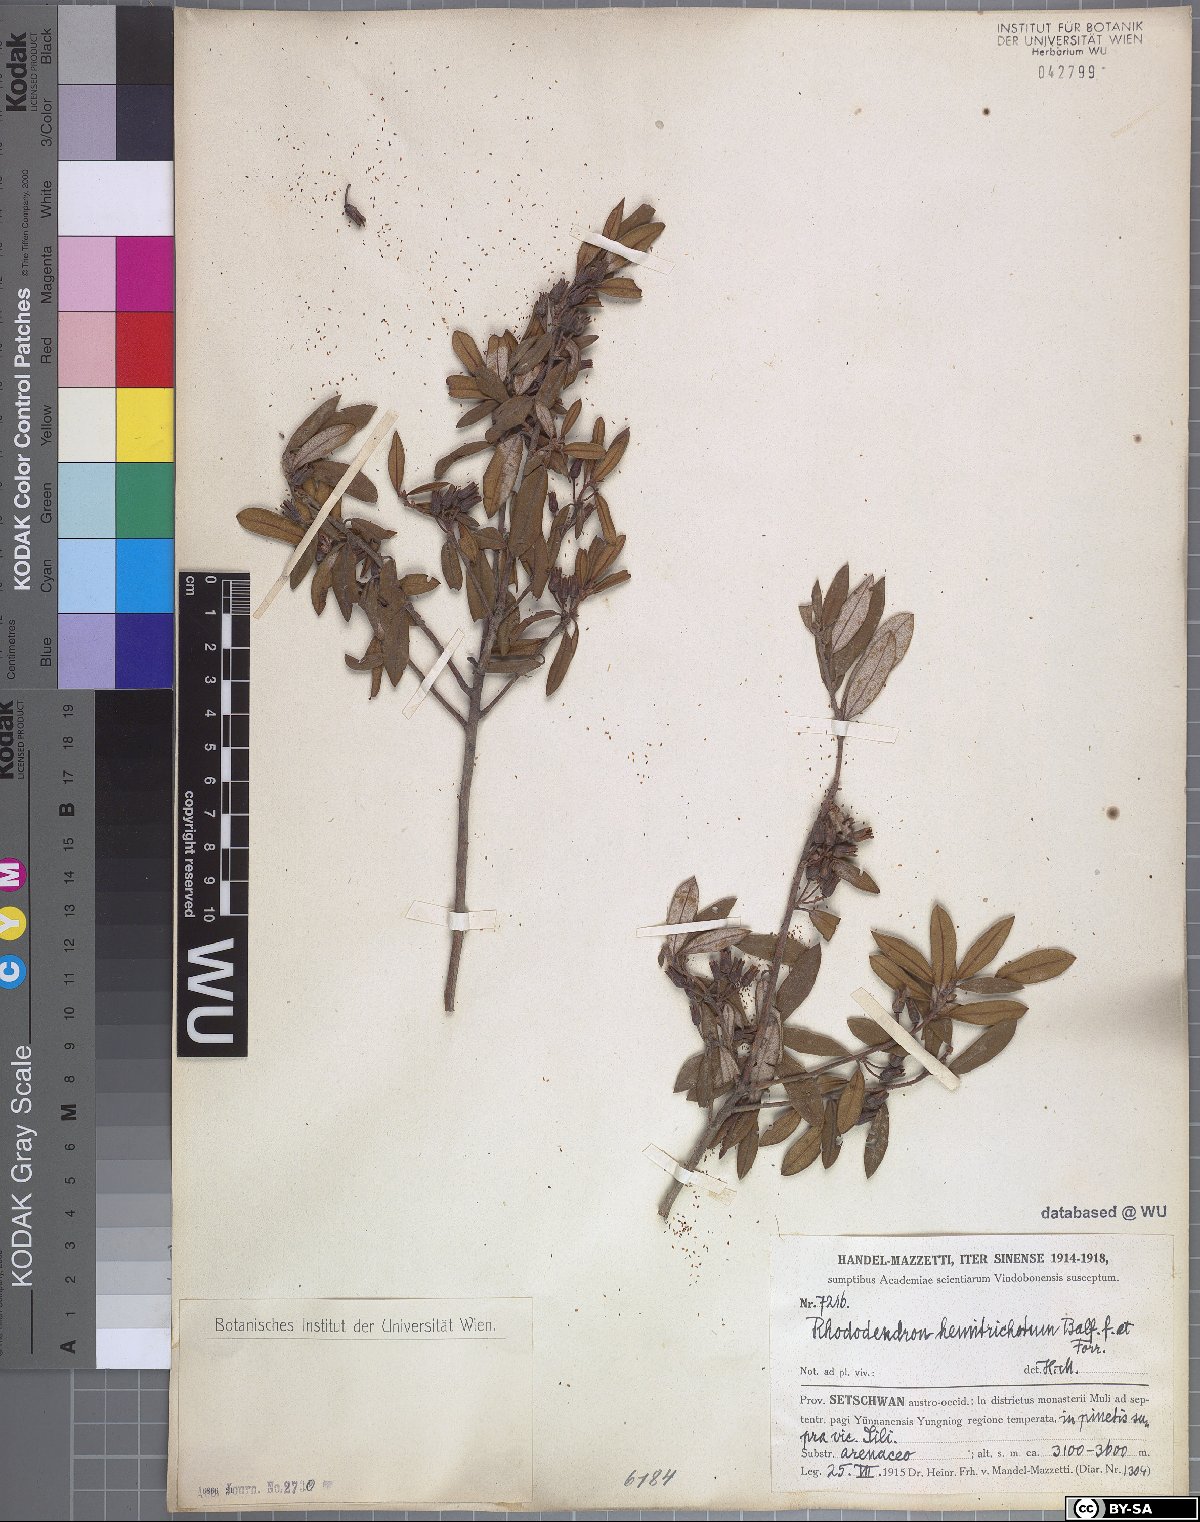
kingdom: Plantae
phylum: Tracheophyta
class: Magnoliopsida
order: Ericales
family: Ericaceae
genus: Rhododendron
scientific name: Rhododendron hemitrichotum
